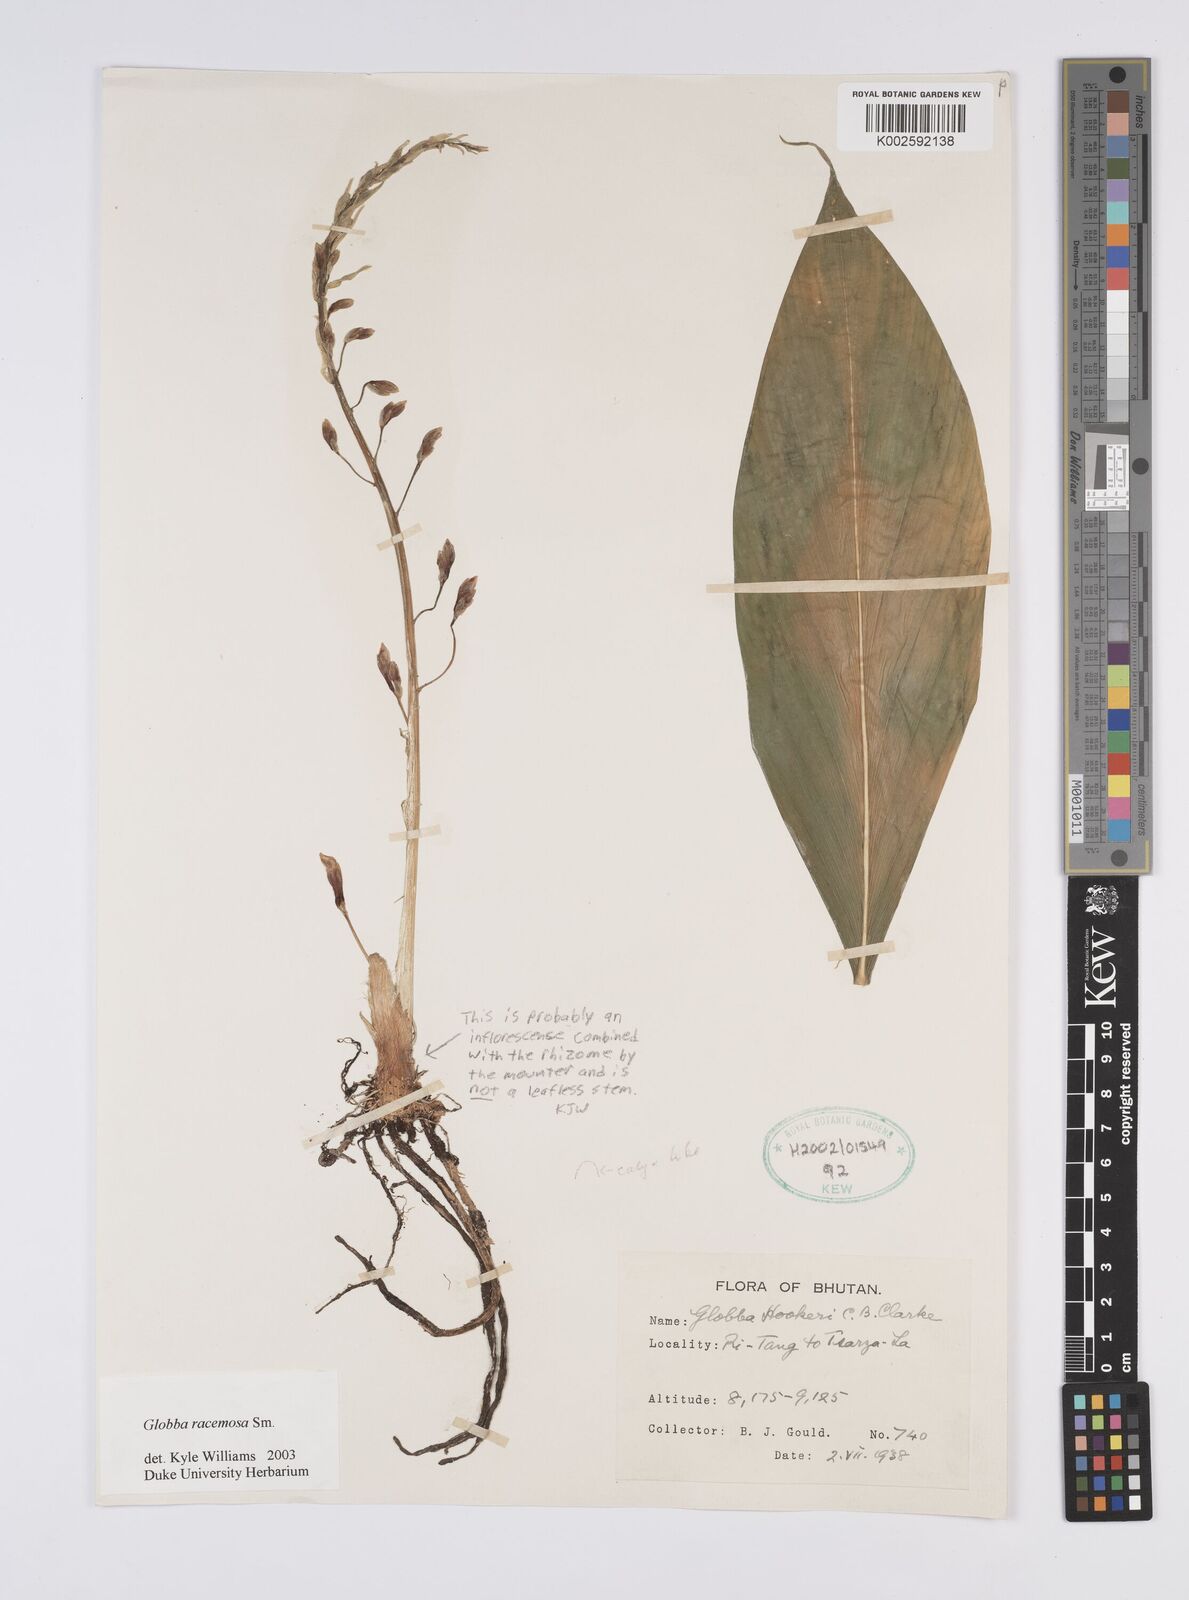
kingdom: Plantae
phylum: Tracheophyta
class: Liliopsida
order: Zingiberales
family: Zingiberaceae
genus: Globba
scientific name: Globba racemosa
